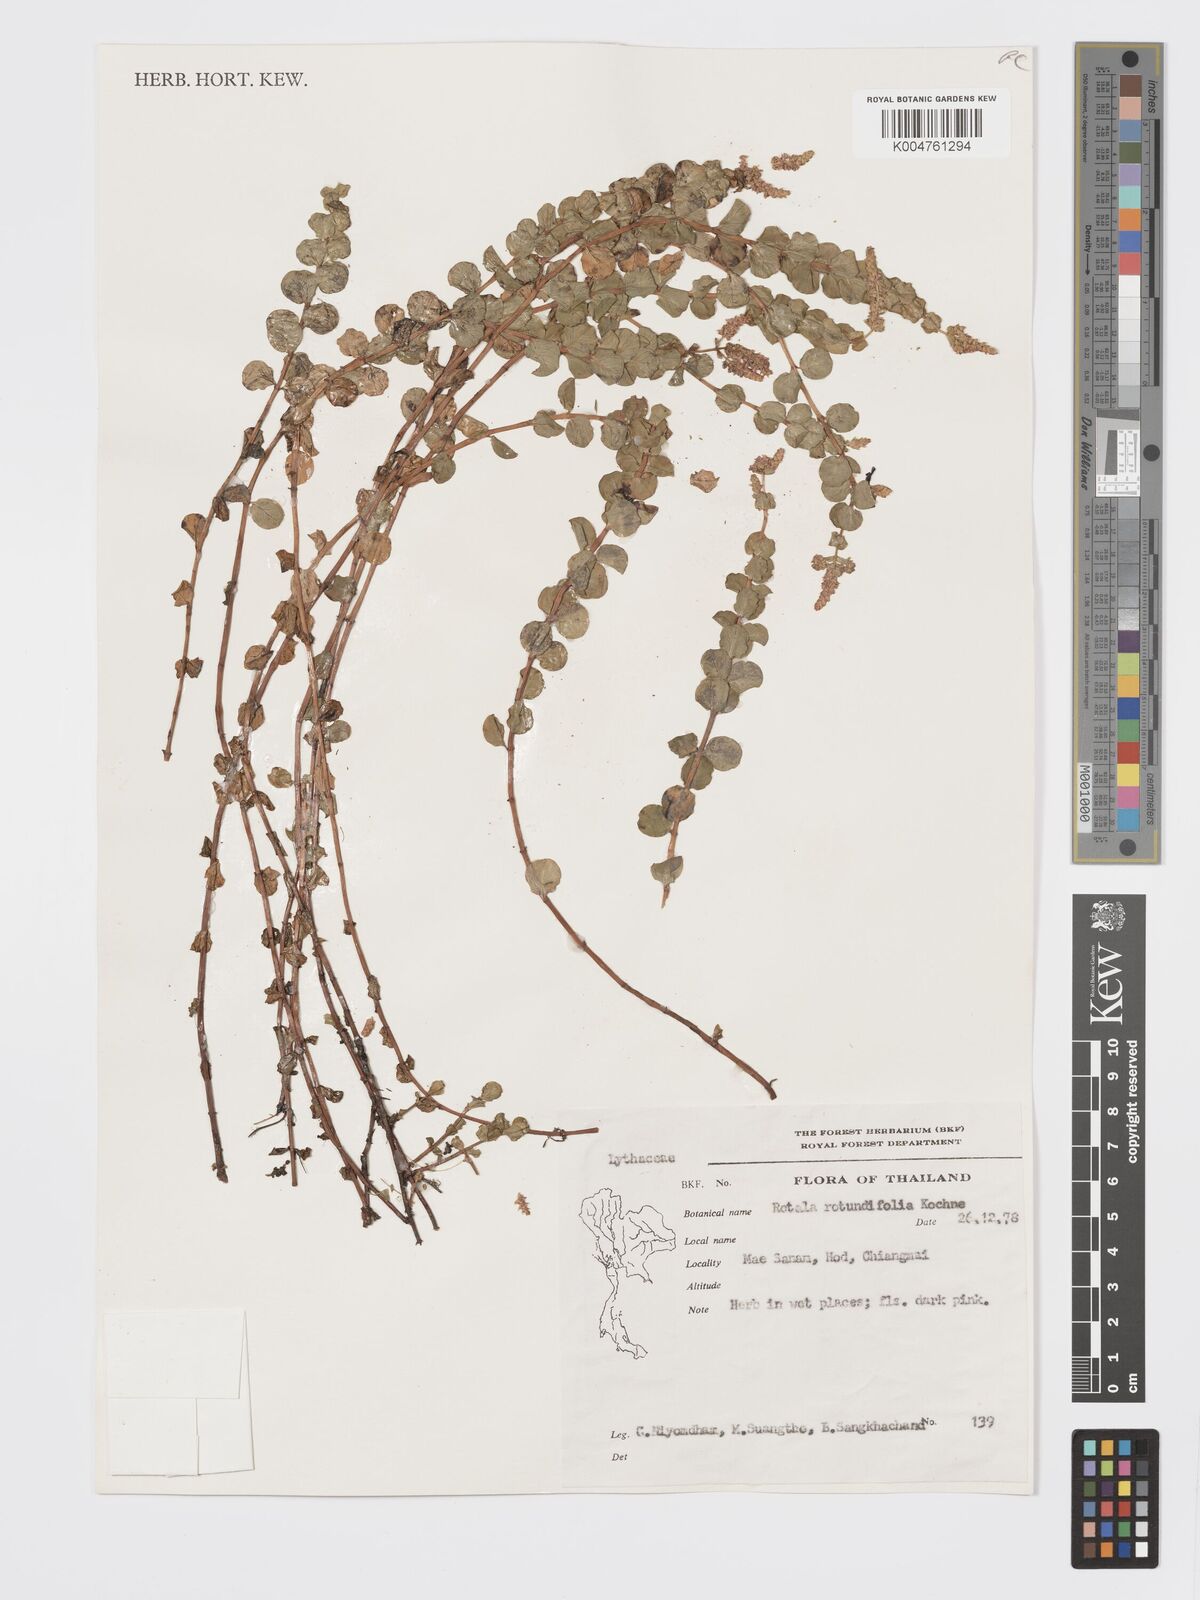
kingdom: Plantae
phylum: Tracheophyta
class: Magnoliopsida
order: Myrtales
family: Lythraceae
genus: Rotala
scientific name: Rotala rotundifolia
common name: Roundleaf toothcup
